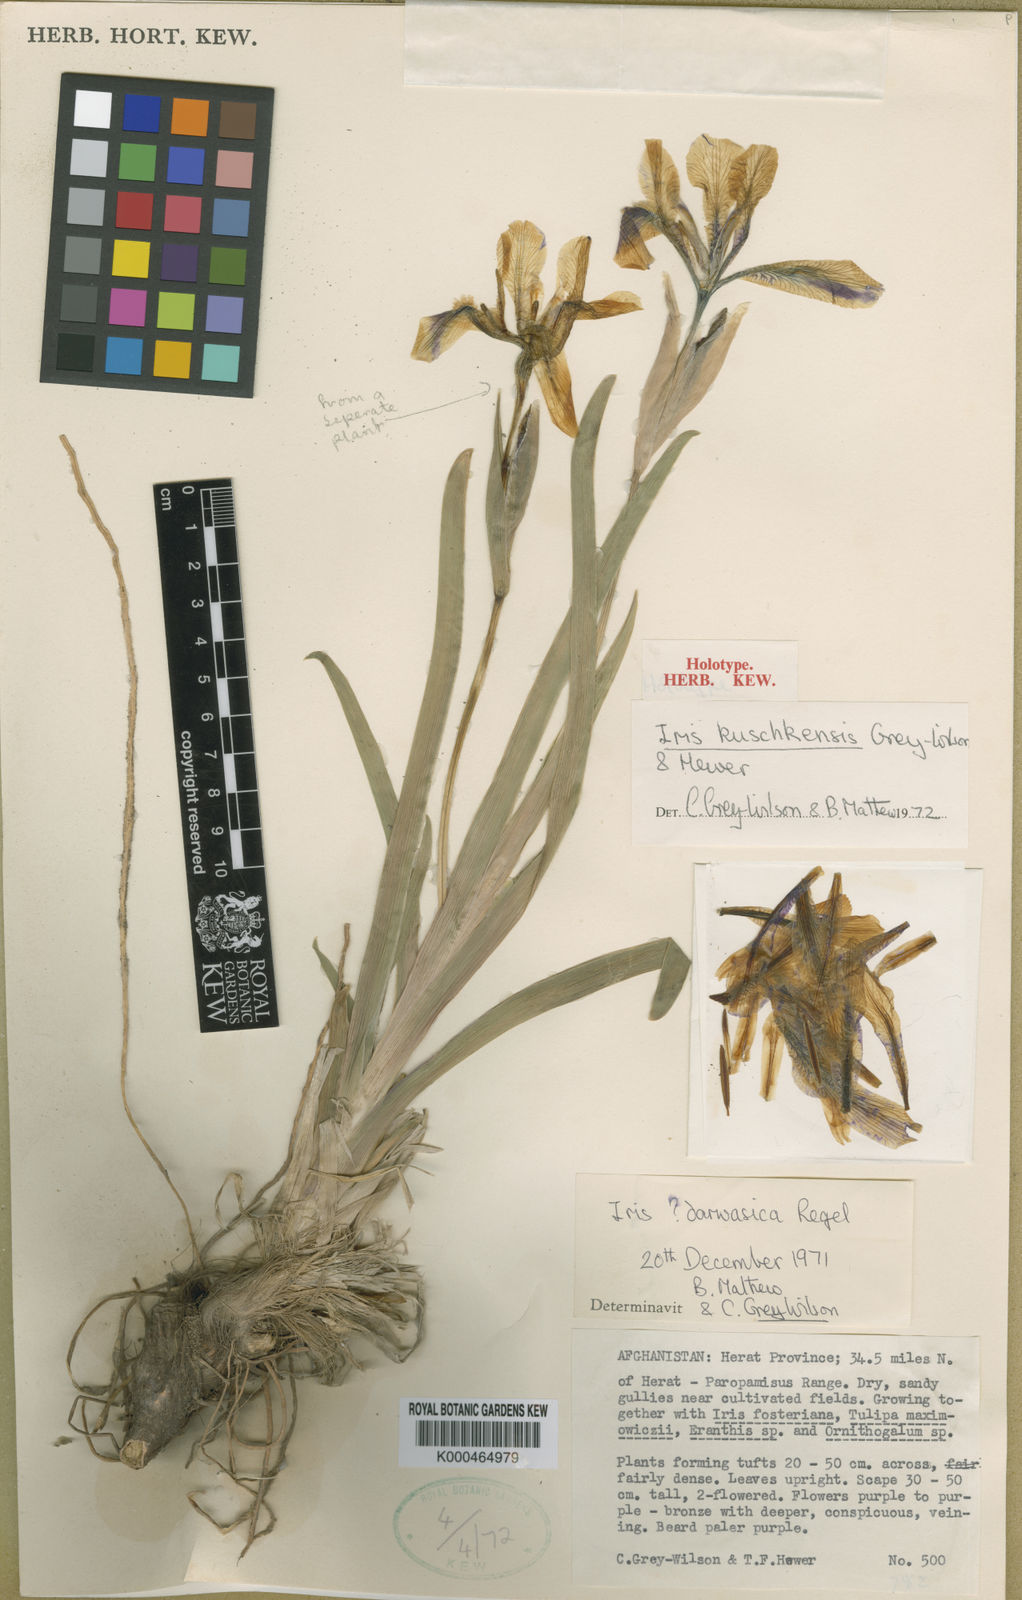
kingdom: Plantae
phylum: Tracheophyta
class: Liliopsida
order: Asparagales
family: Iridaceae
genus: Iris
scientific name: Iris kuschkensis
